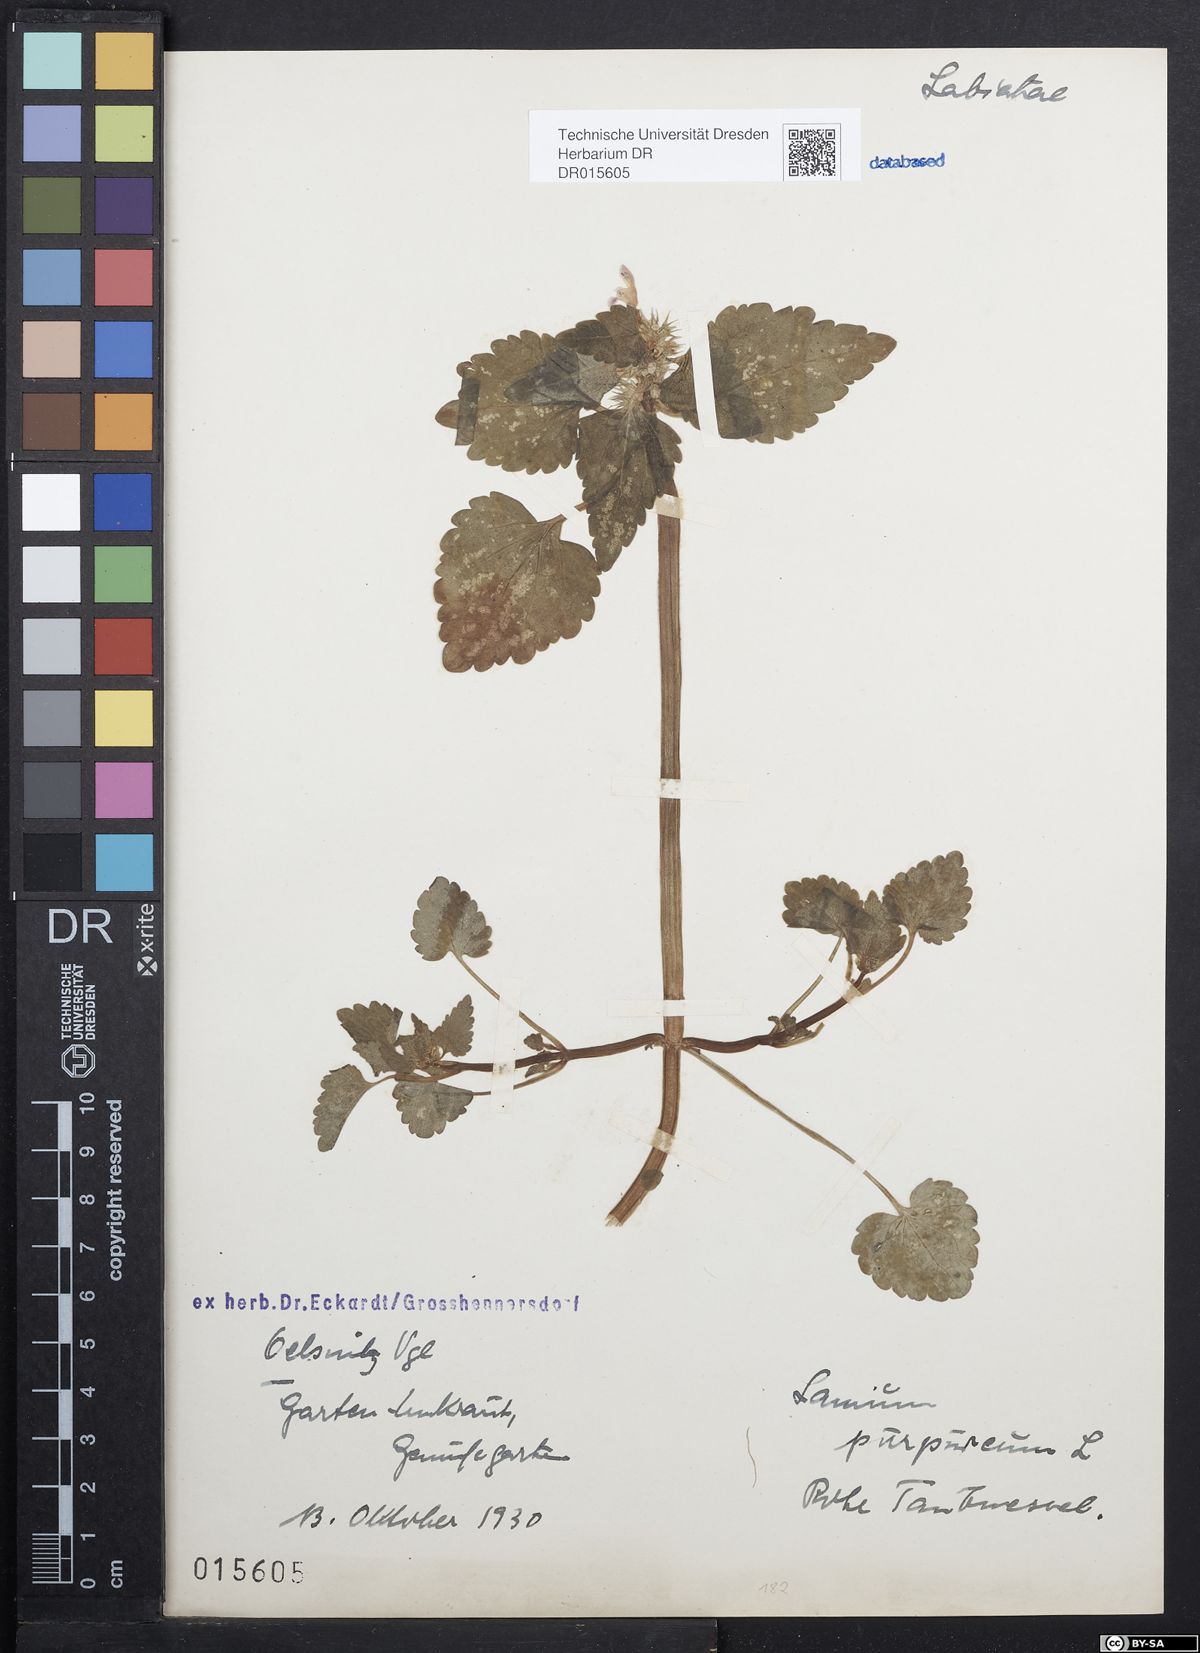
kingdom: Plantae
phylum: Tracheophyta
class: Magnoliopsida
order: Lamiales
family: Lamiaceae
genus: Lamium
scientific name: Lamium purpureum
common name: Red dead-nettle
